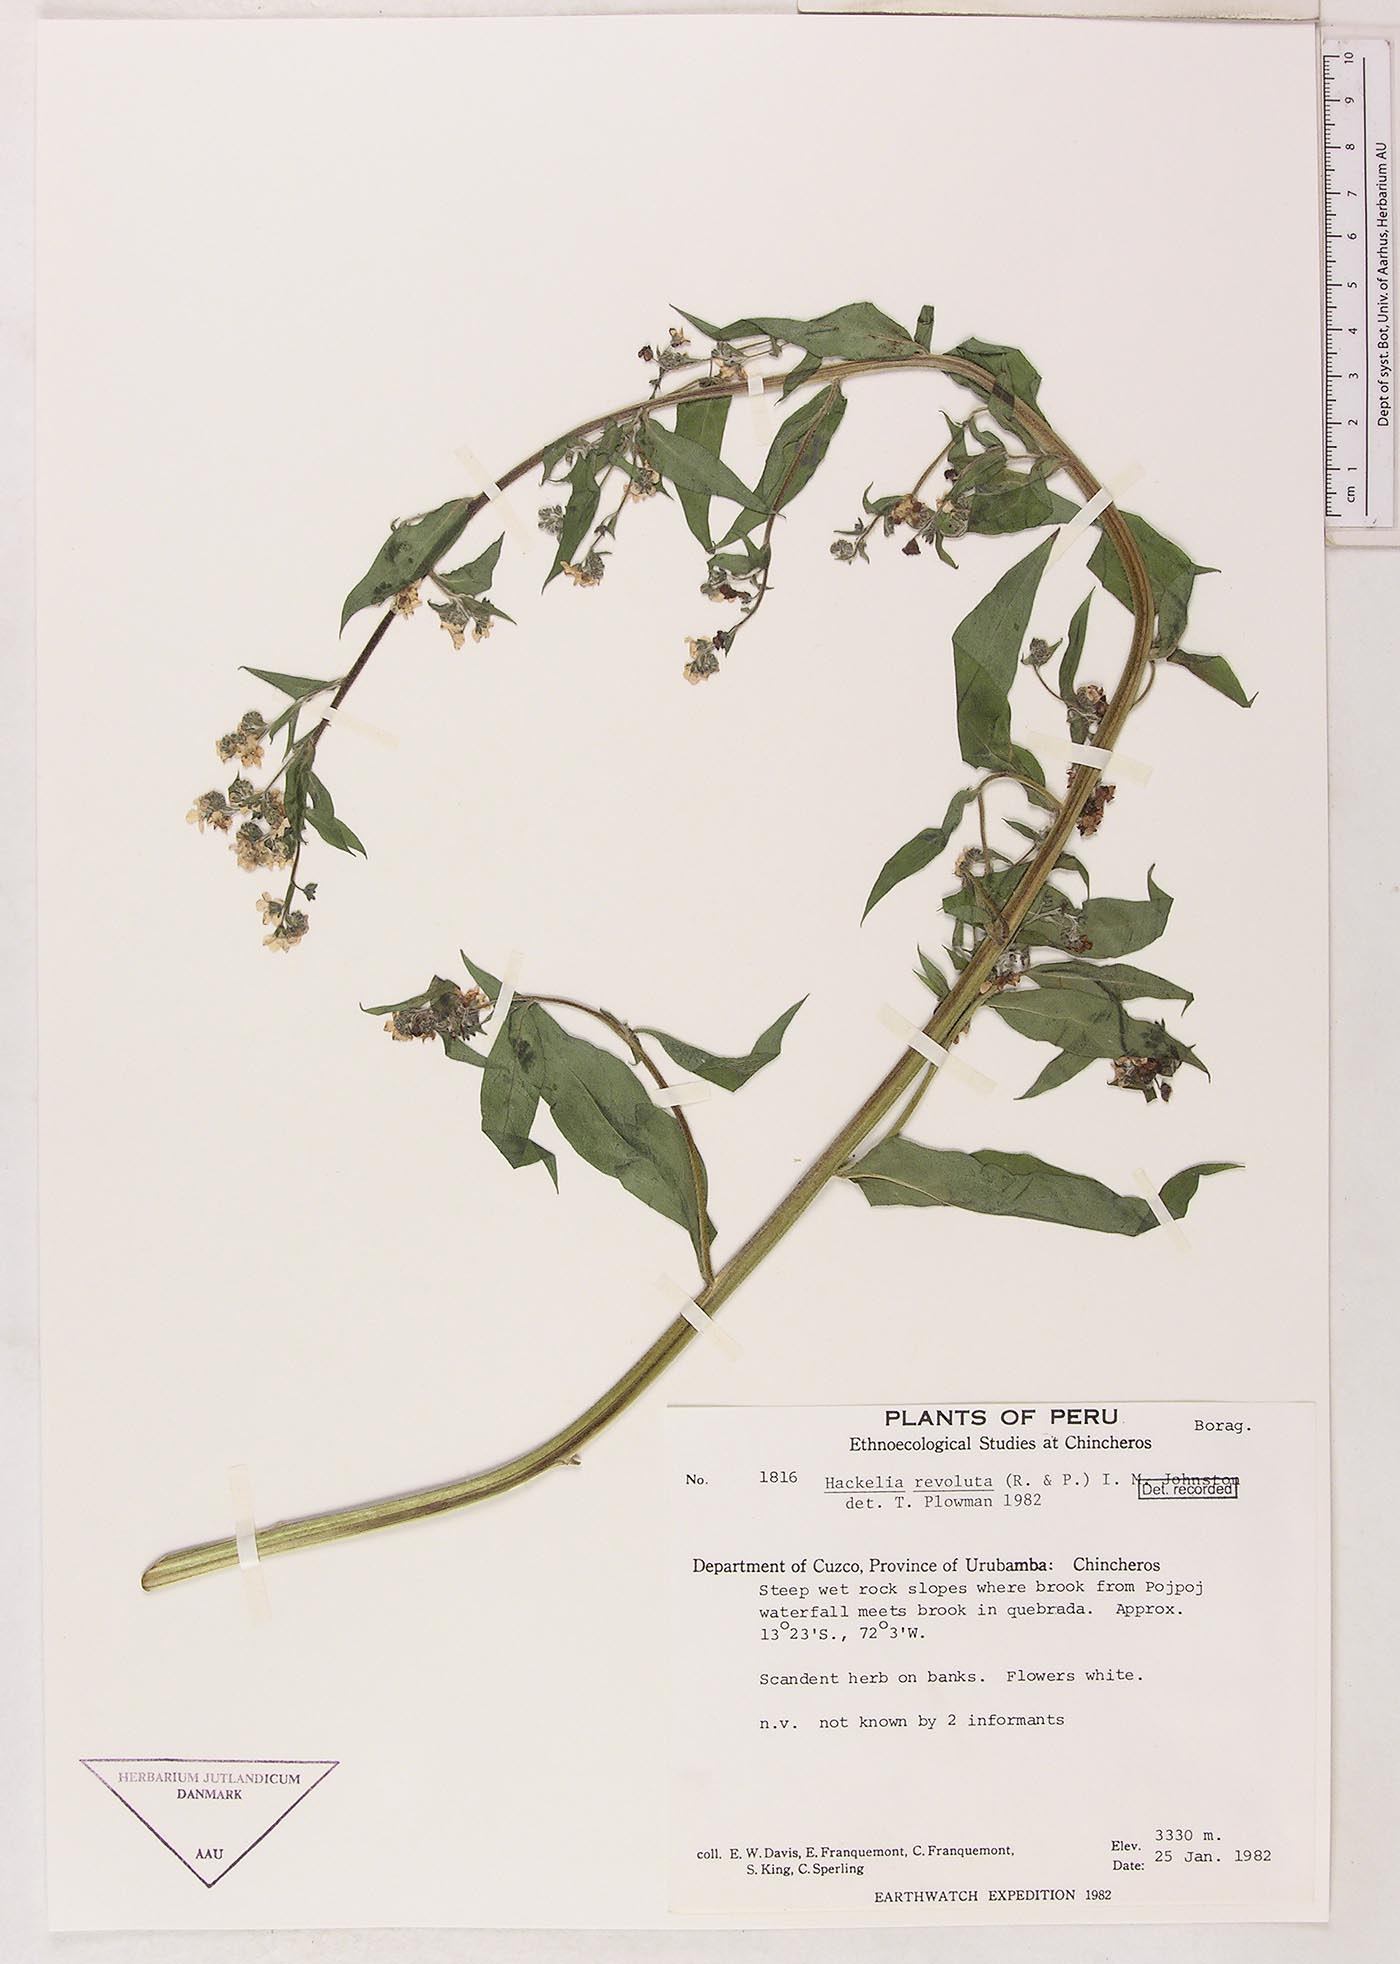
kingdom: Plantae
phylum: Tracheophyta
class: Magnoliopsida
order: Boraginales
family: Boraginaceae
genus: Hackelia
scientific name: Hackelia revoluta
